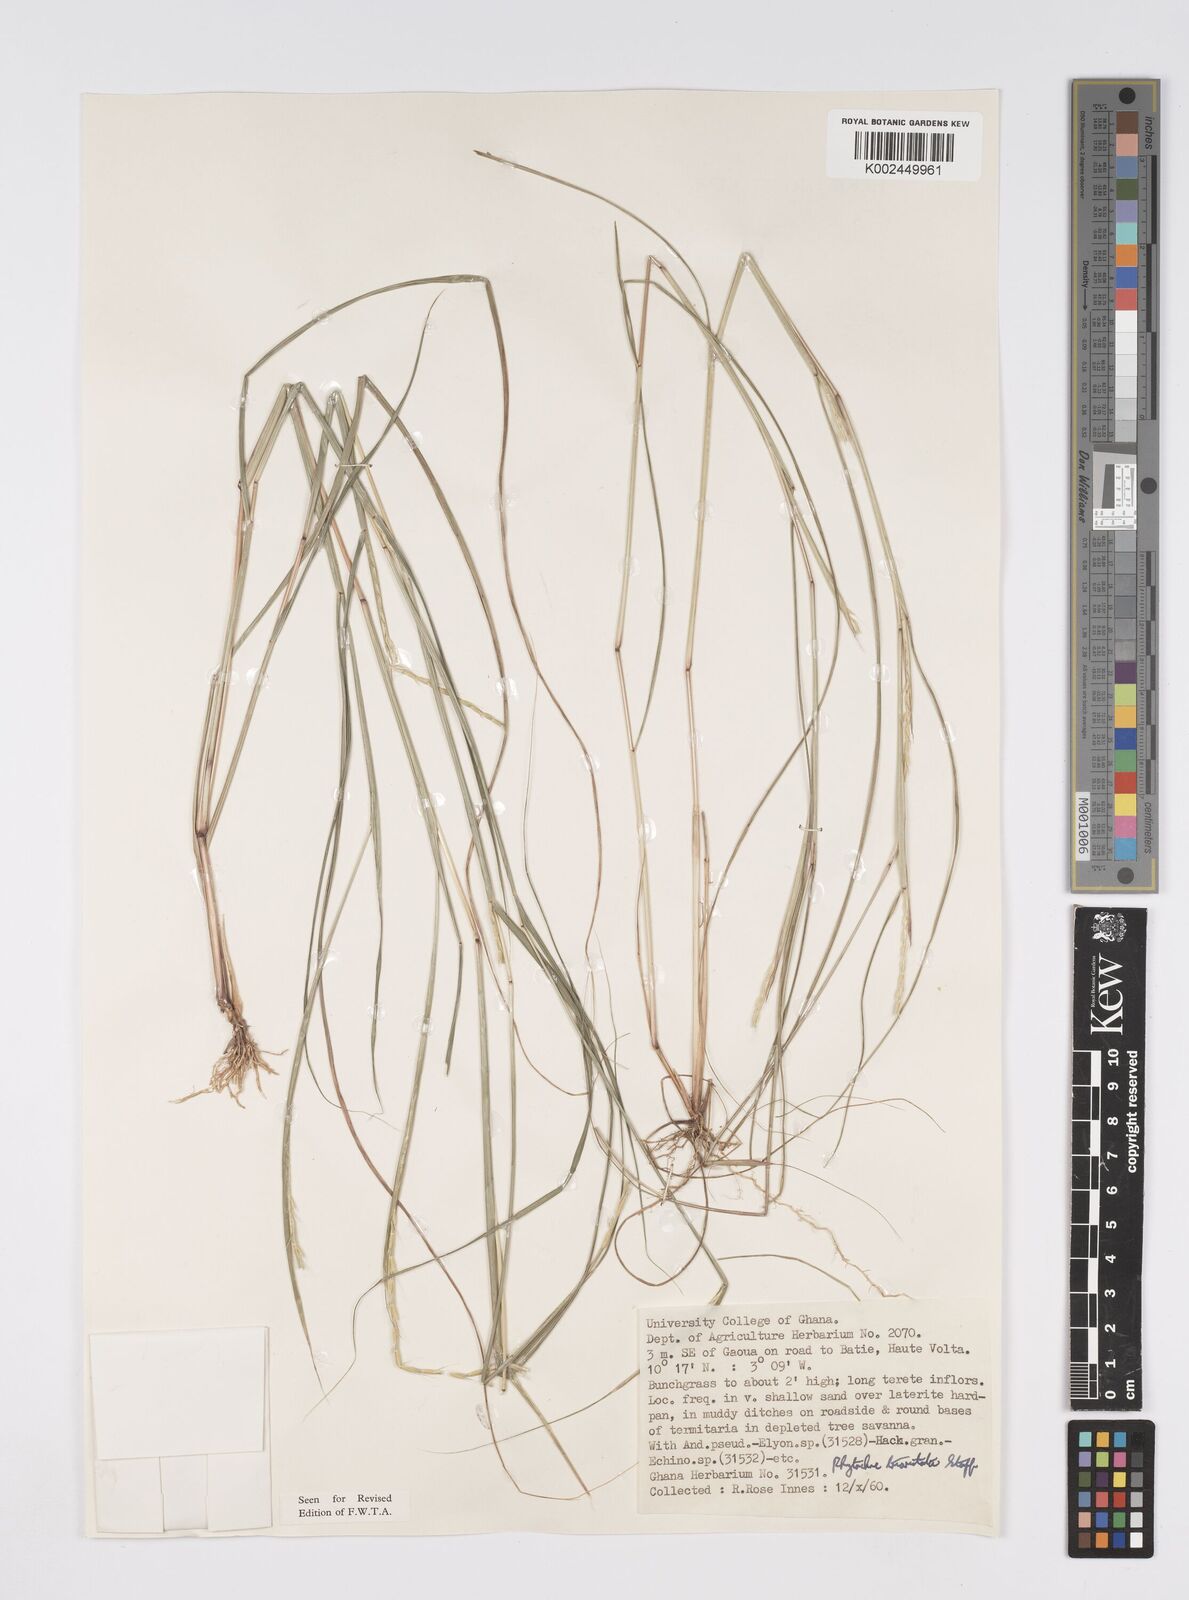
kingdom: Plantae
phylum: Tracheophyta
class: Liliopsida
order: Poales
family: Poaceae
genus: Rhytachne
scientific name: Rhytachne triaristata
